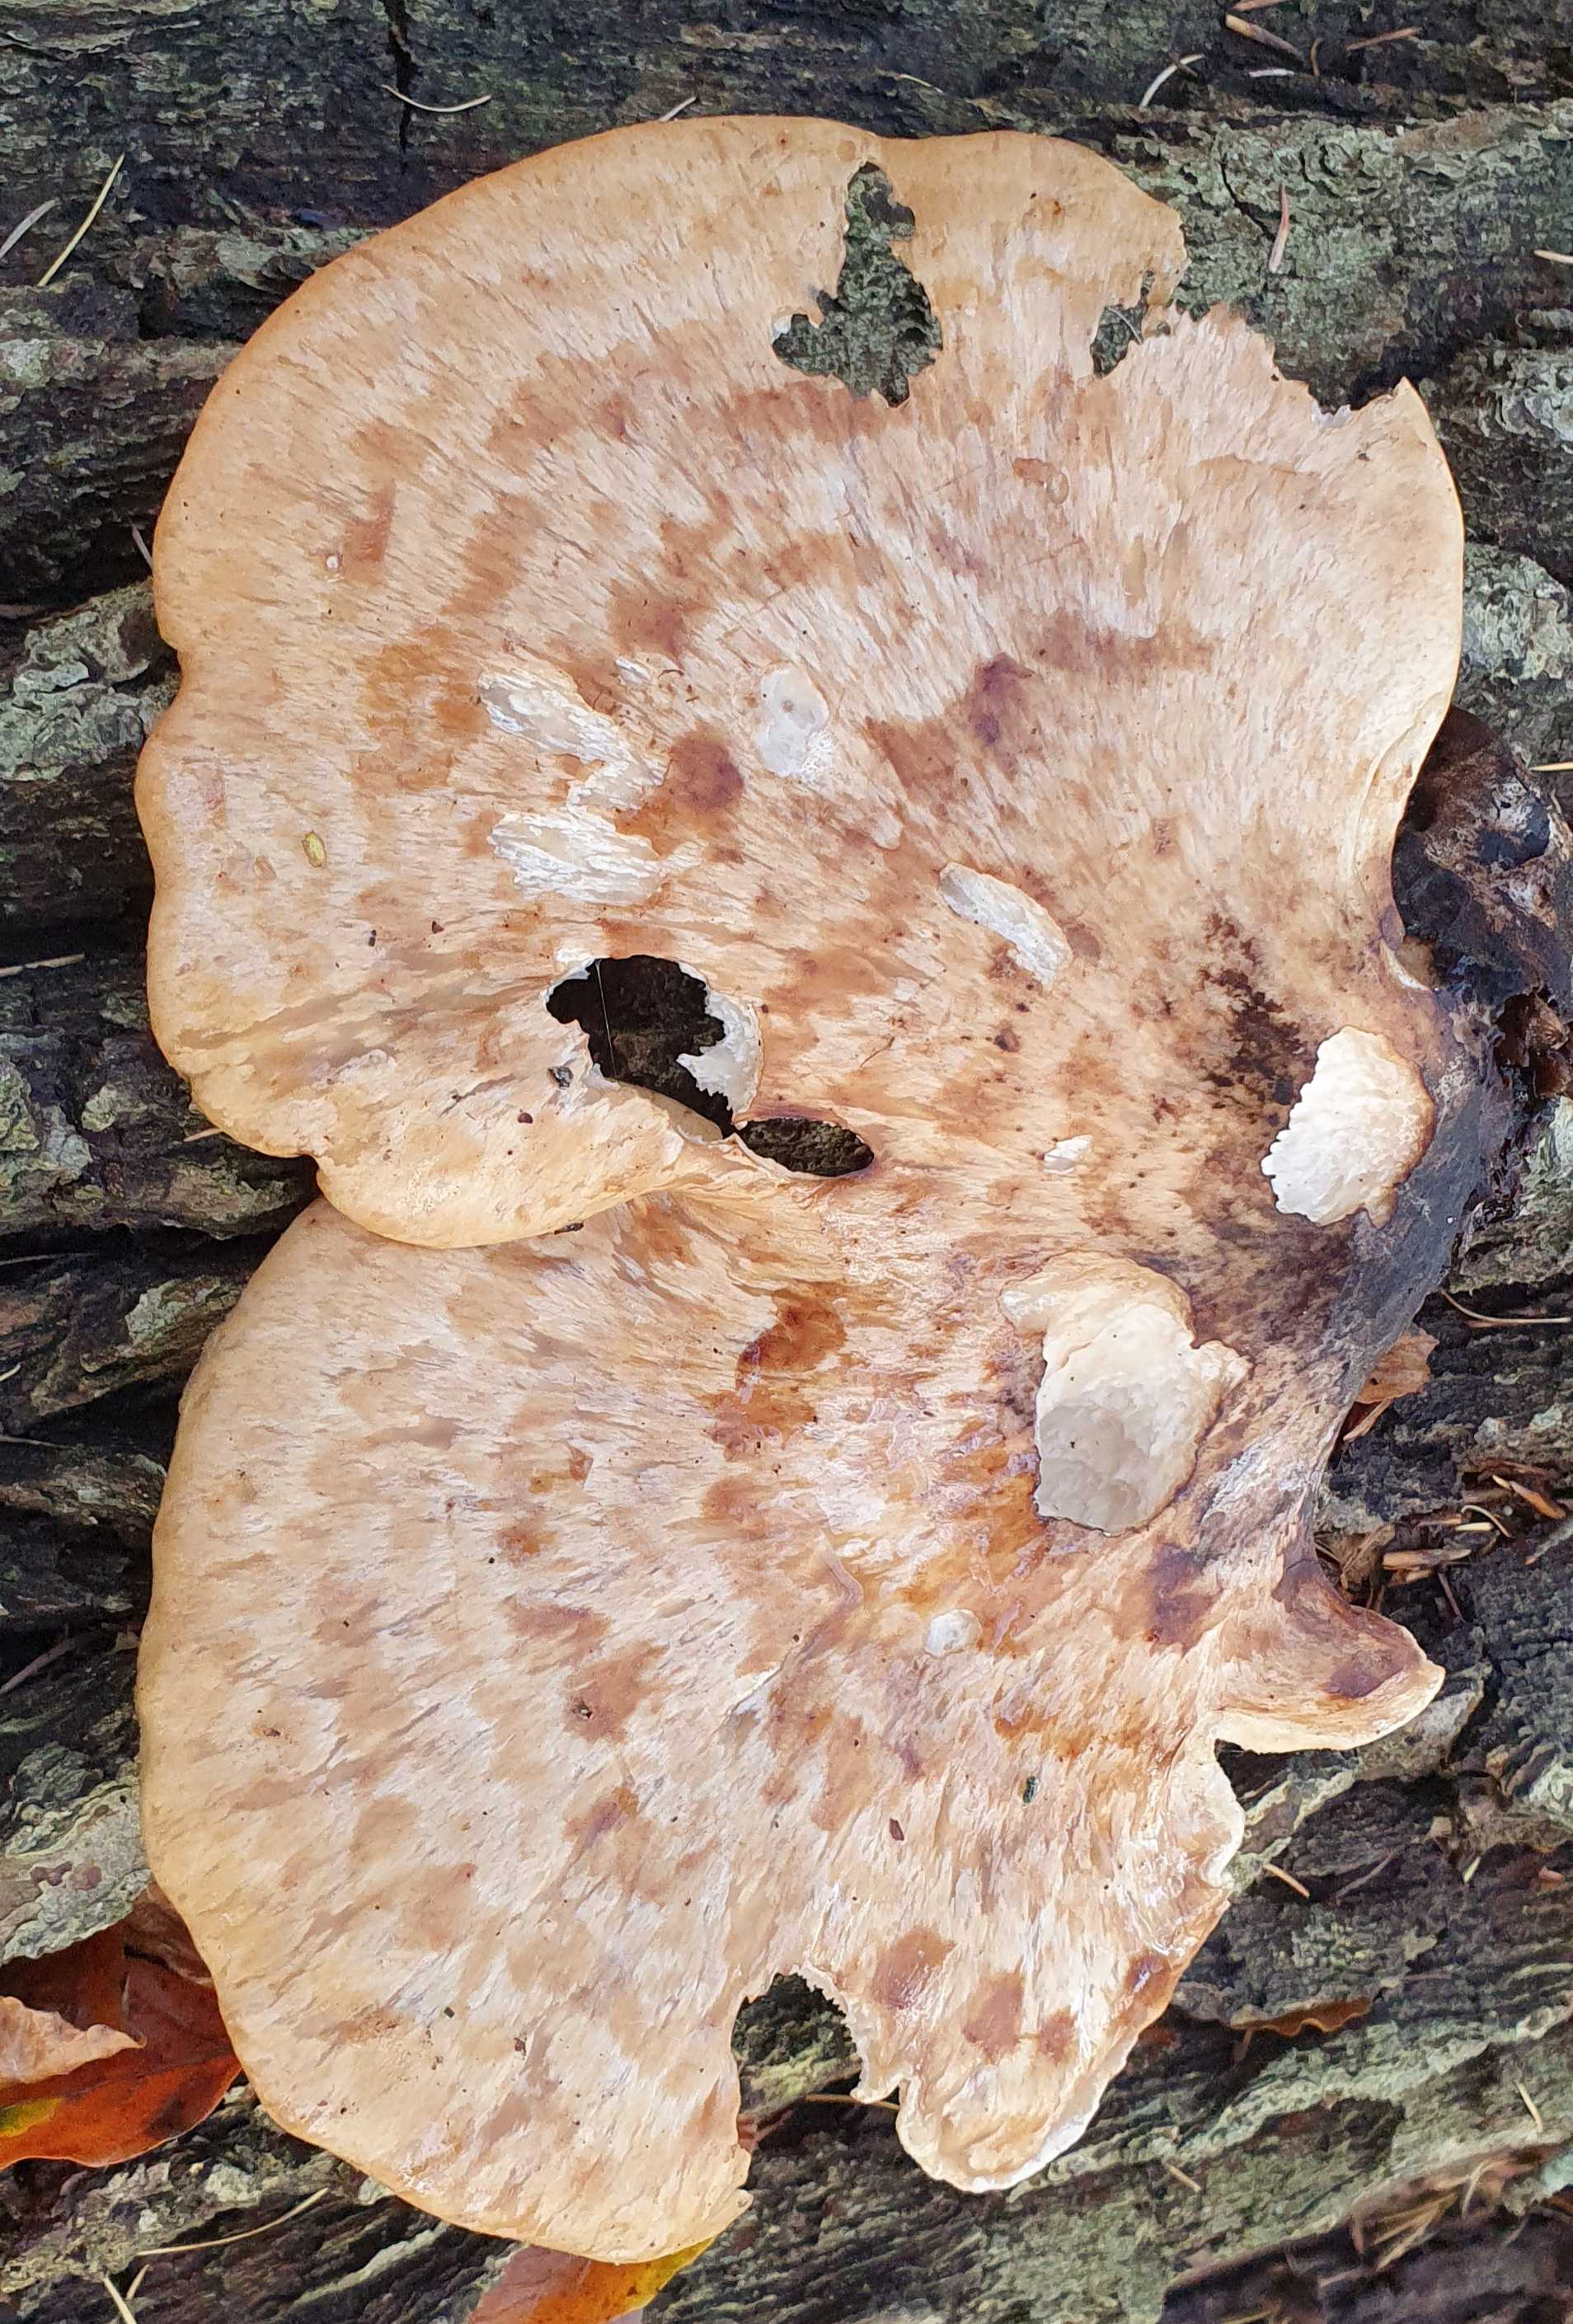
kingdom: Fungi
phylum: Basidiomycota
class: Agaricomycetes
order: Polyporales
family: Polyporaceae
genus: Cerioporus
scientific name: Cerioporus squamosus
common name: skællet stilkporesvamp
